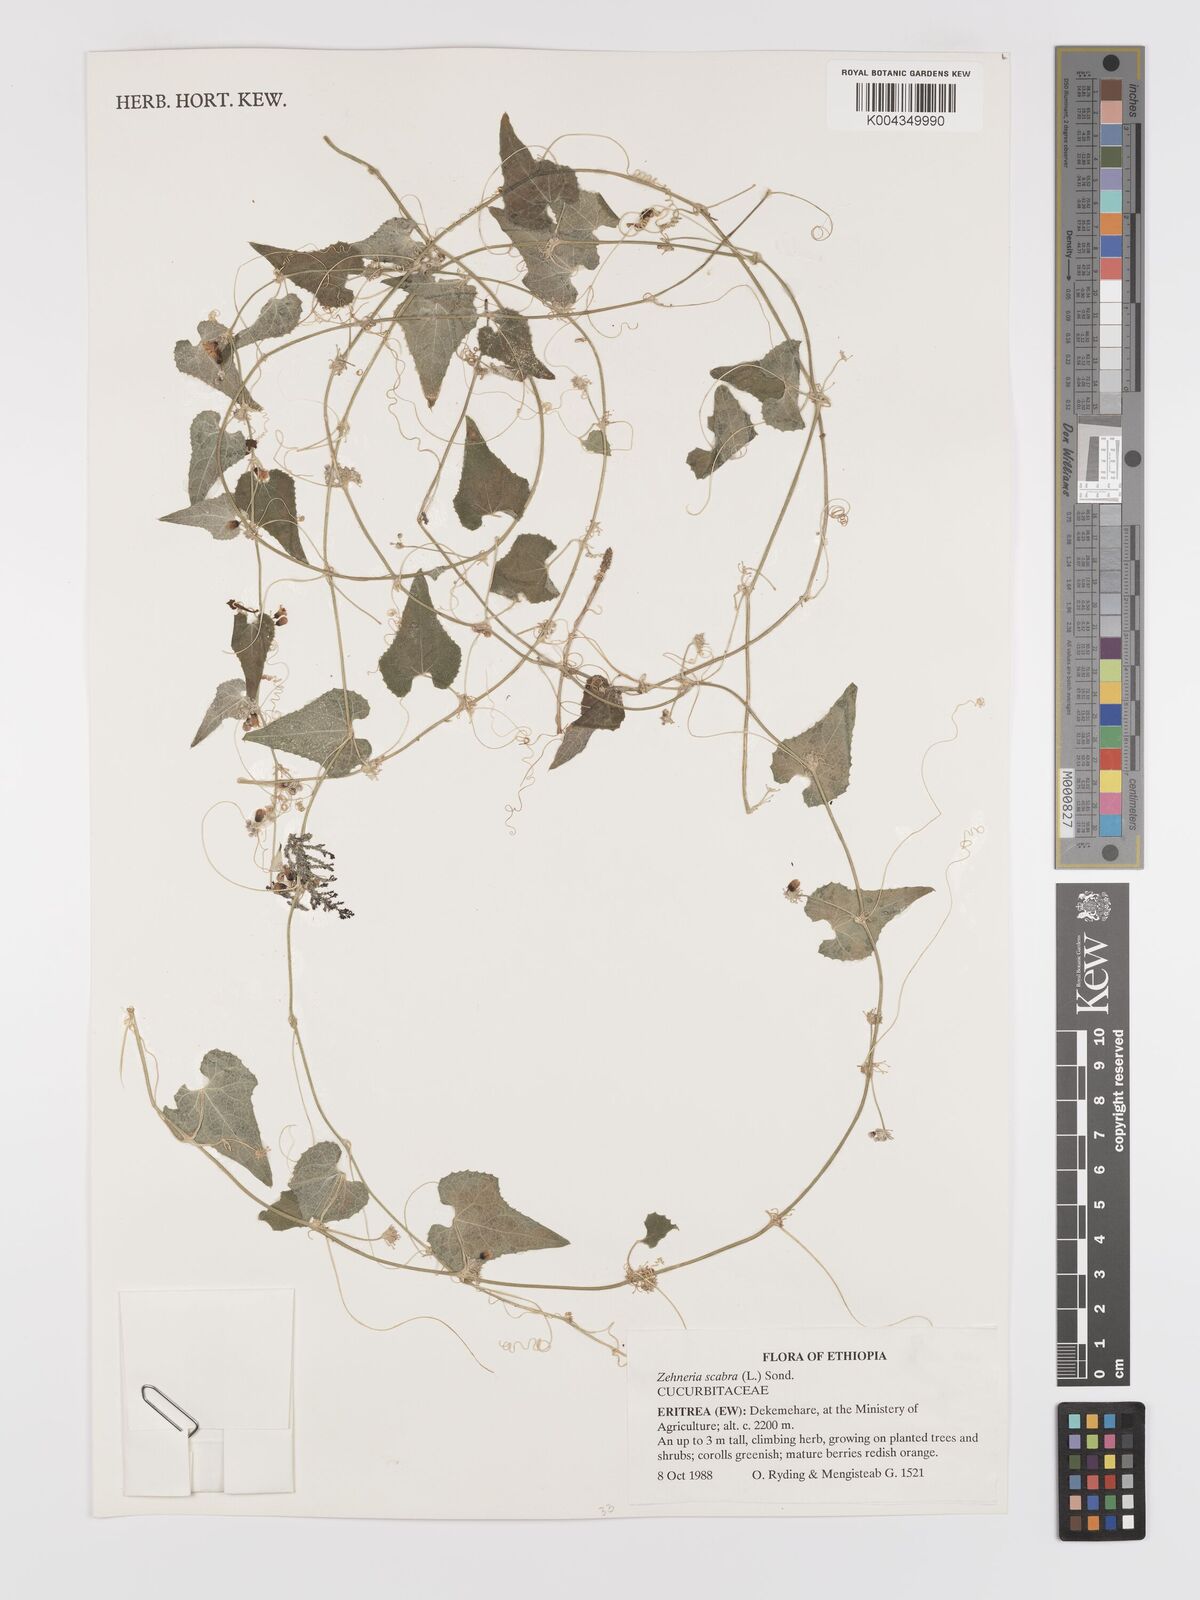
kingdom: Plantae
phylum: Tracheophyta
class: Magnoliopsida
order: Cucurbitales
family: Cucurbitaceae
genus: Zehneria
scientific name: Zehneria scabra
